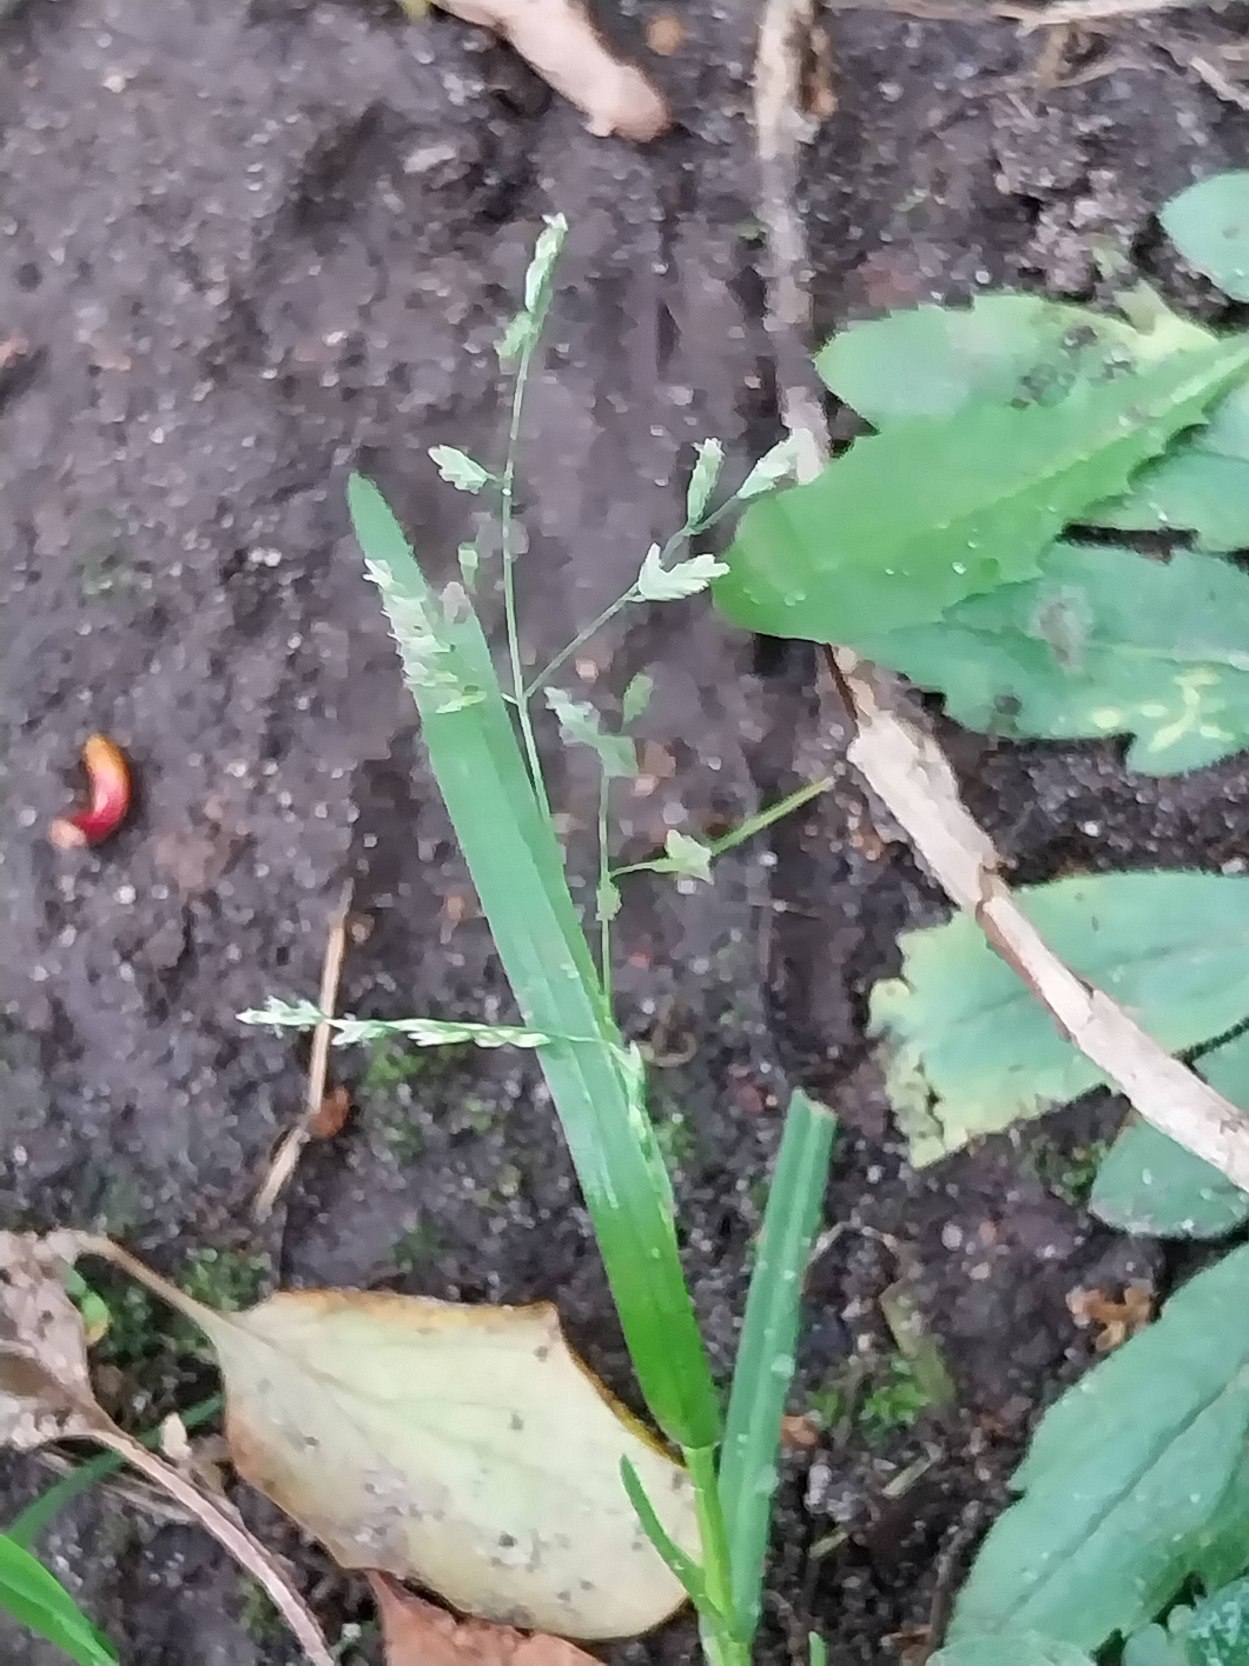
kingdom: Plantae
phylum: Tracheophyta
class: Liliopsida
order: Poales
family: Poaceae
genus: Poa
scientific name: Poa annua
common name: Enårig rapgræs
